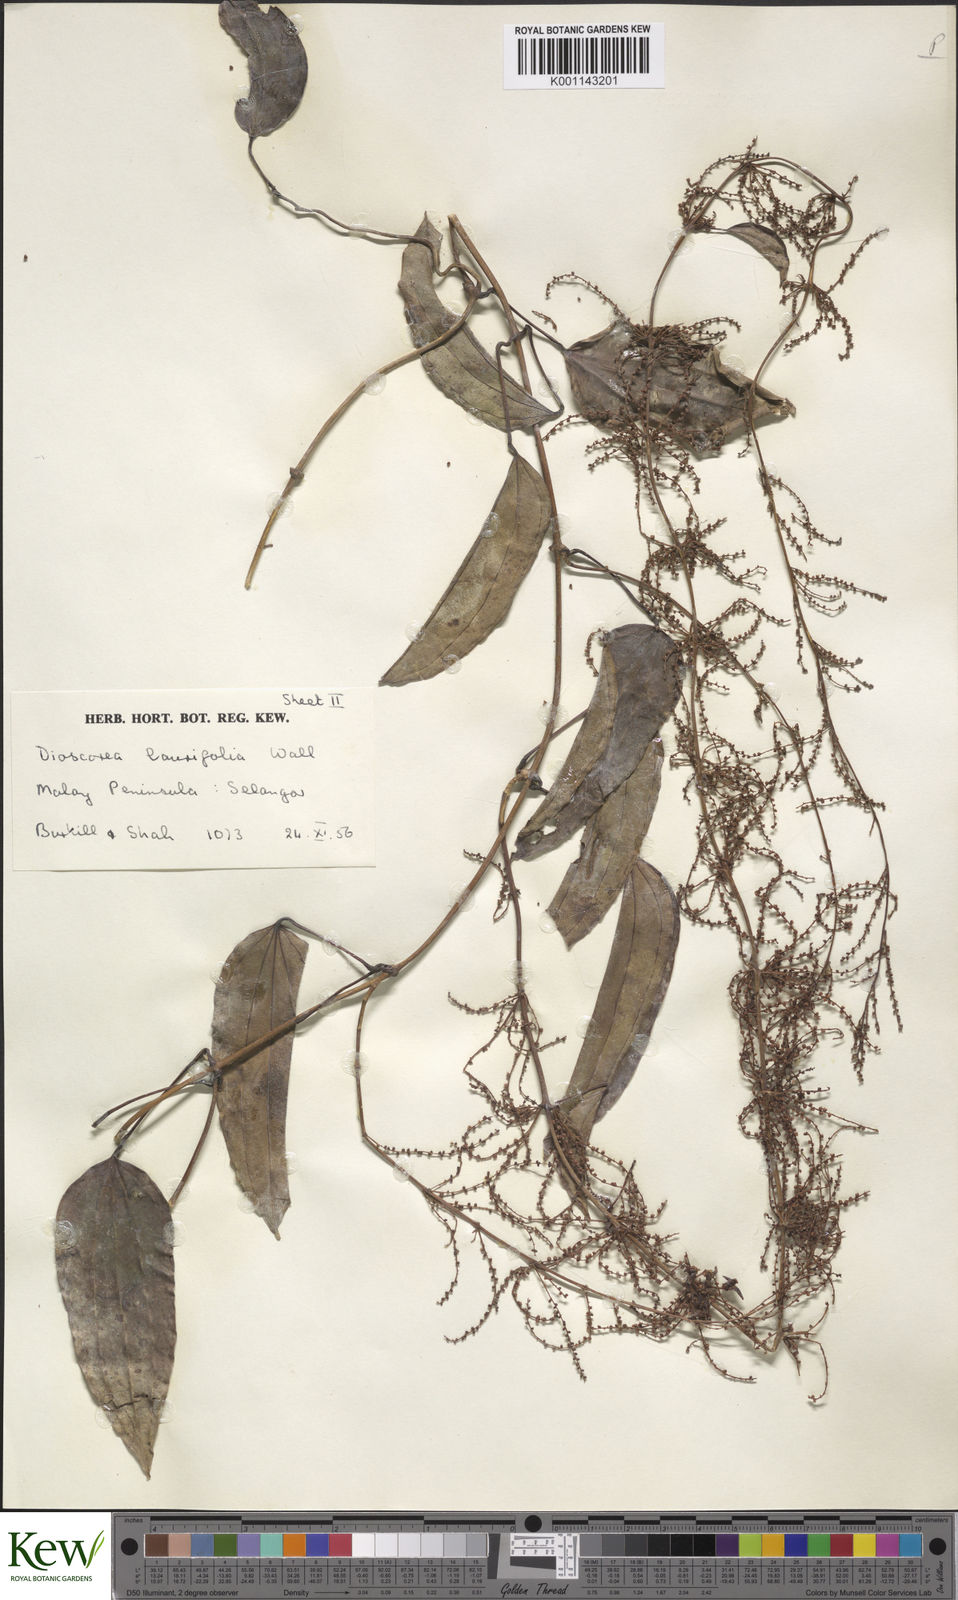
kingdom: Plantae
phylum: Tracheophyta
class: Liliopsida
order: Dioscoreales
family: Dioscoreaceae
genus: Dioscorea
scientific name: Dioscorea laurifolia
